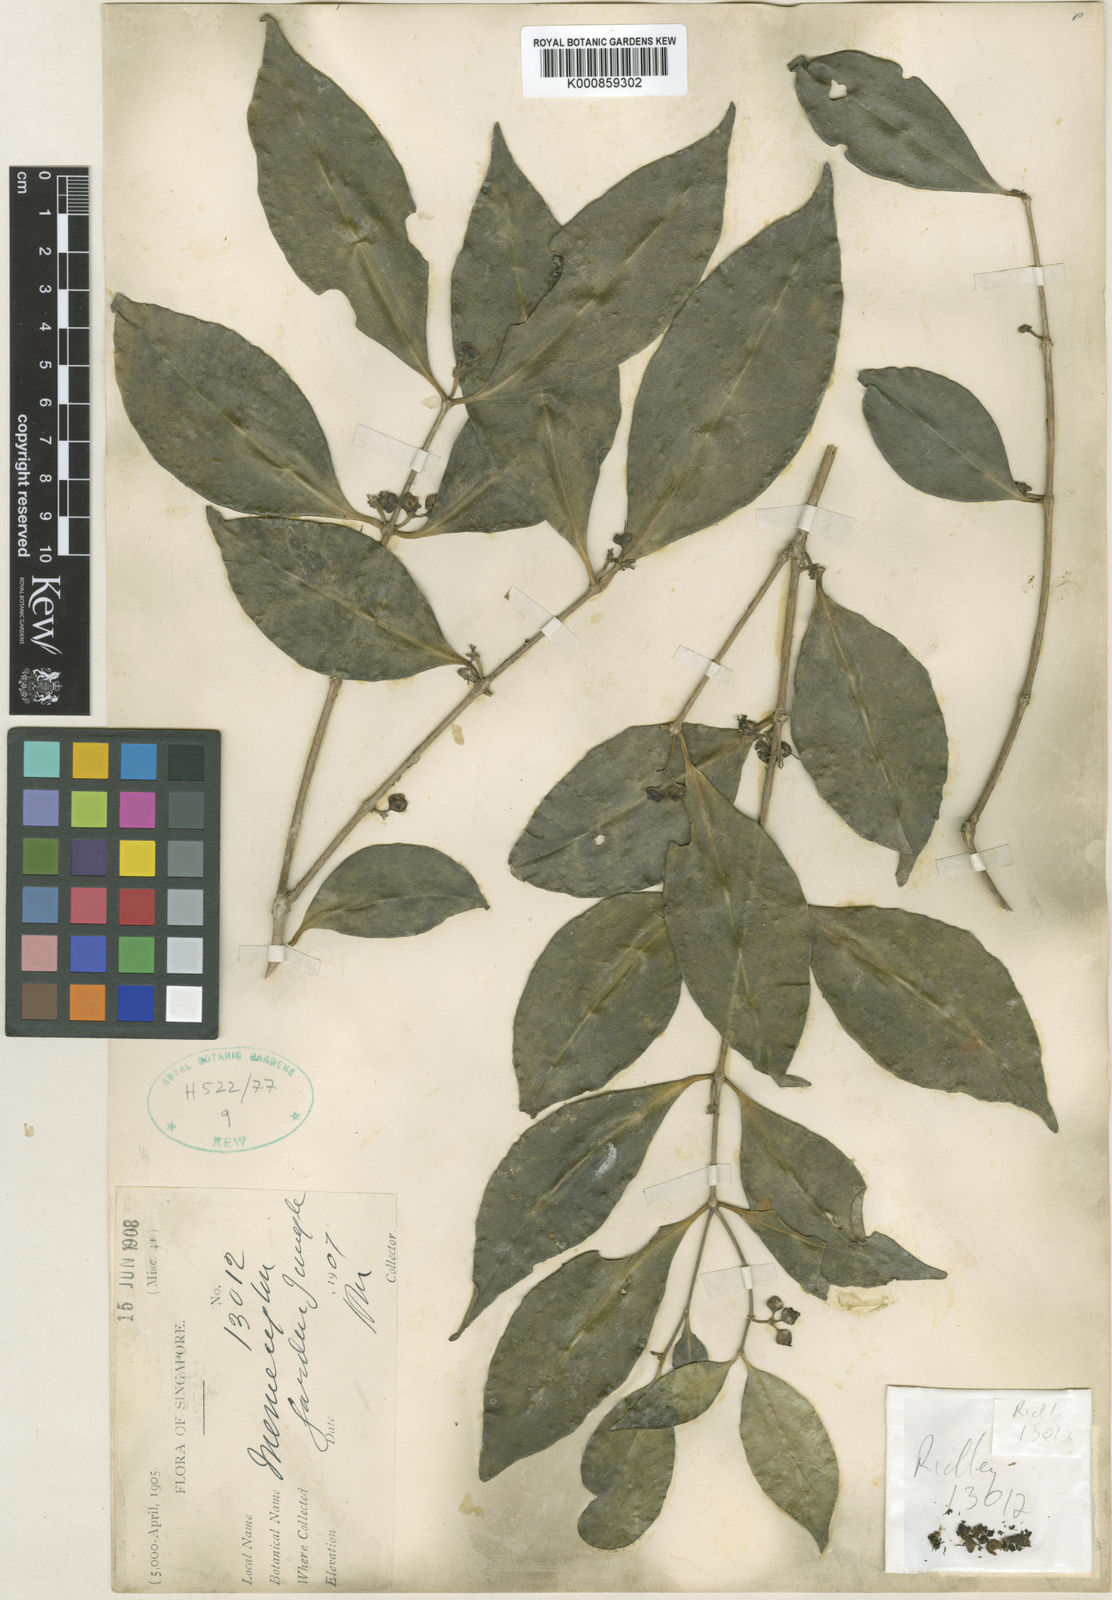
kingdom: Plantae
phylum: Tracheophyta
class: Magnoliopsida
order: Myrtales
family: Melastomataceae
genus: Memecylon
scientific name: Memecylon cantleyi
